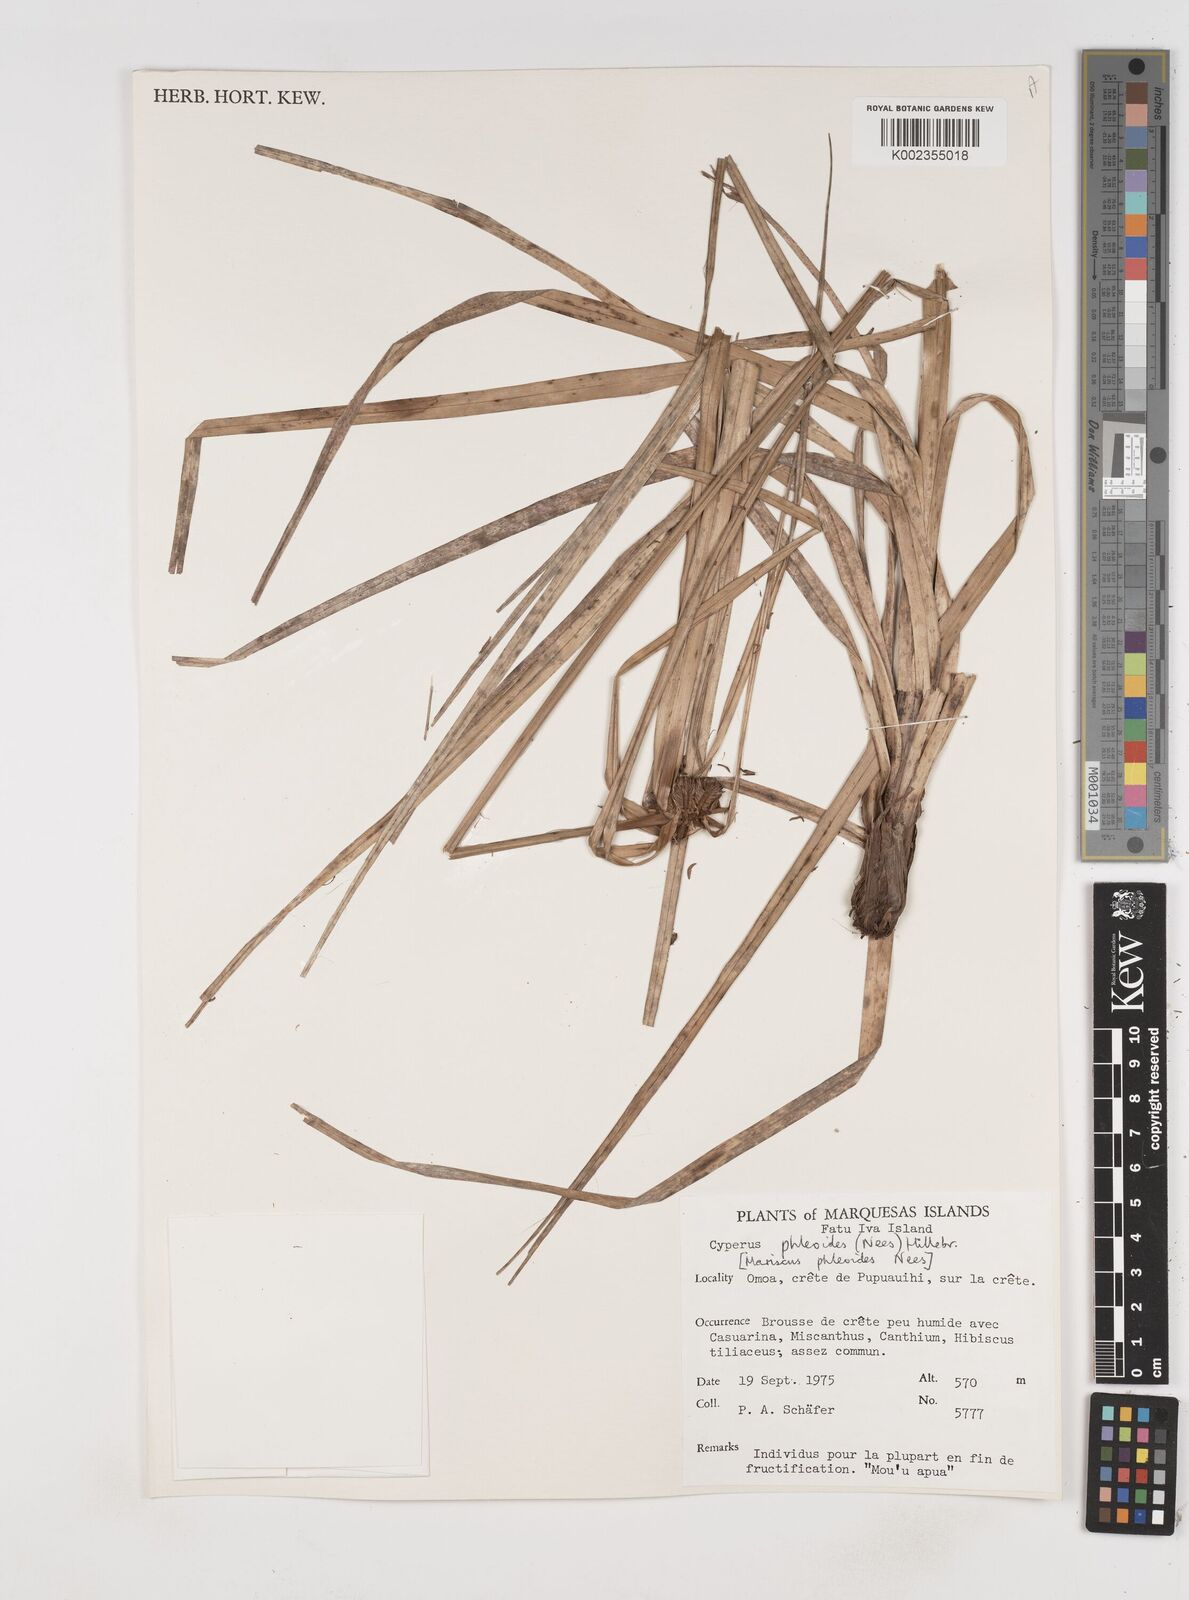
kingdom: Plantae
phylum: Tracheophyta
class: Liliopsida
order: Poales
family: Cyperaceae
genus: Cyperus
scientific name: Cyperus phleoides
